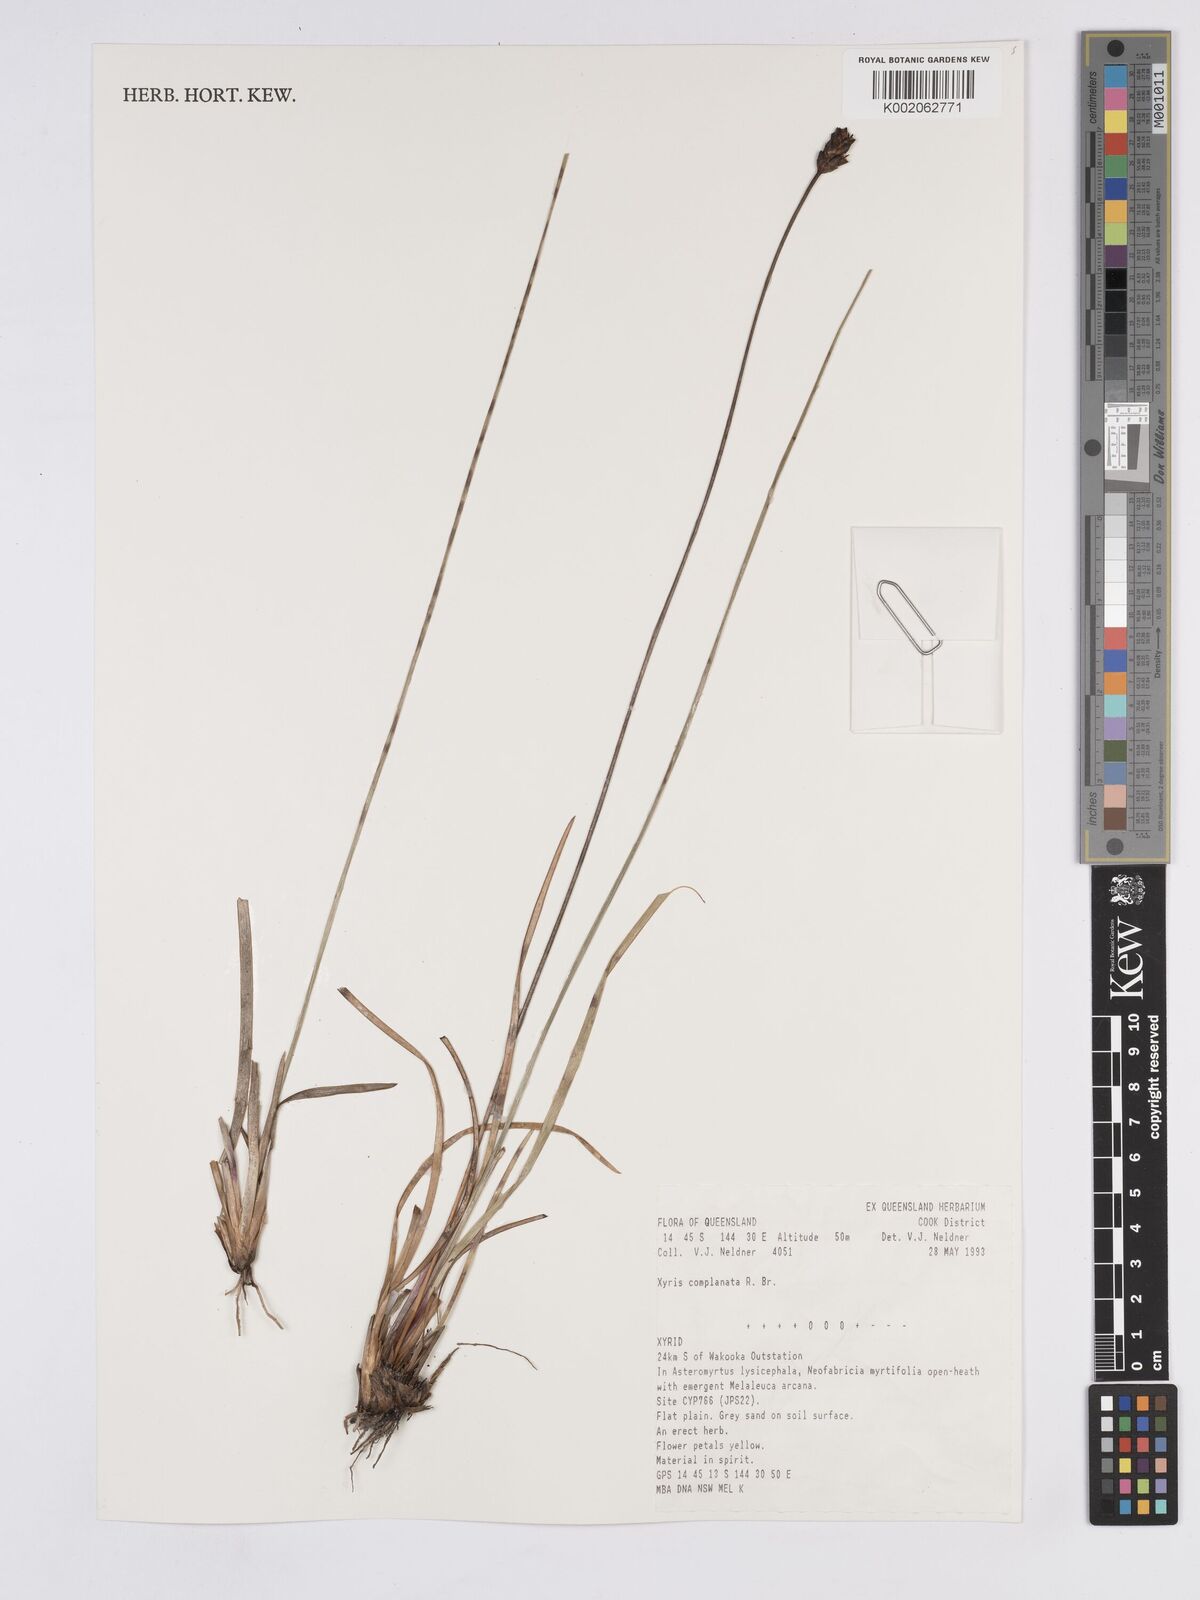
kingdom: Plantae
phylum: Tracheophyta
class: Liliopsida
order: Poales
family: Xyridaceae
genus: Xyris
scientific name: Xyris complanata
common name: Hawai'i yelloweyed grass
